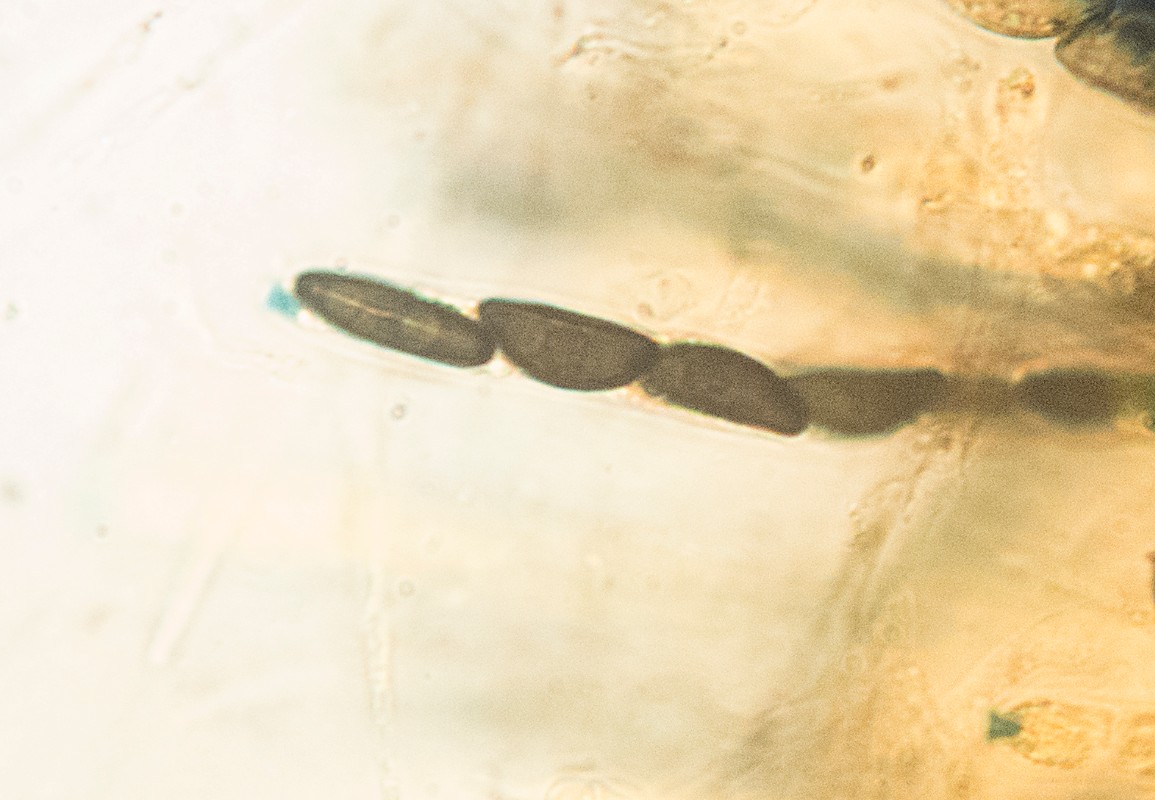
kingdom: Fungi
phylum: Ascomycota
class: Sordariomycetes
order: Xylariales
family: Xylariaceae
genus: Nemania
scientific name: Nemania carbonacea
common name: kulsort kuldyne
